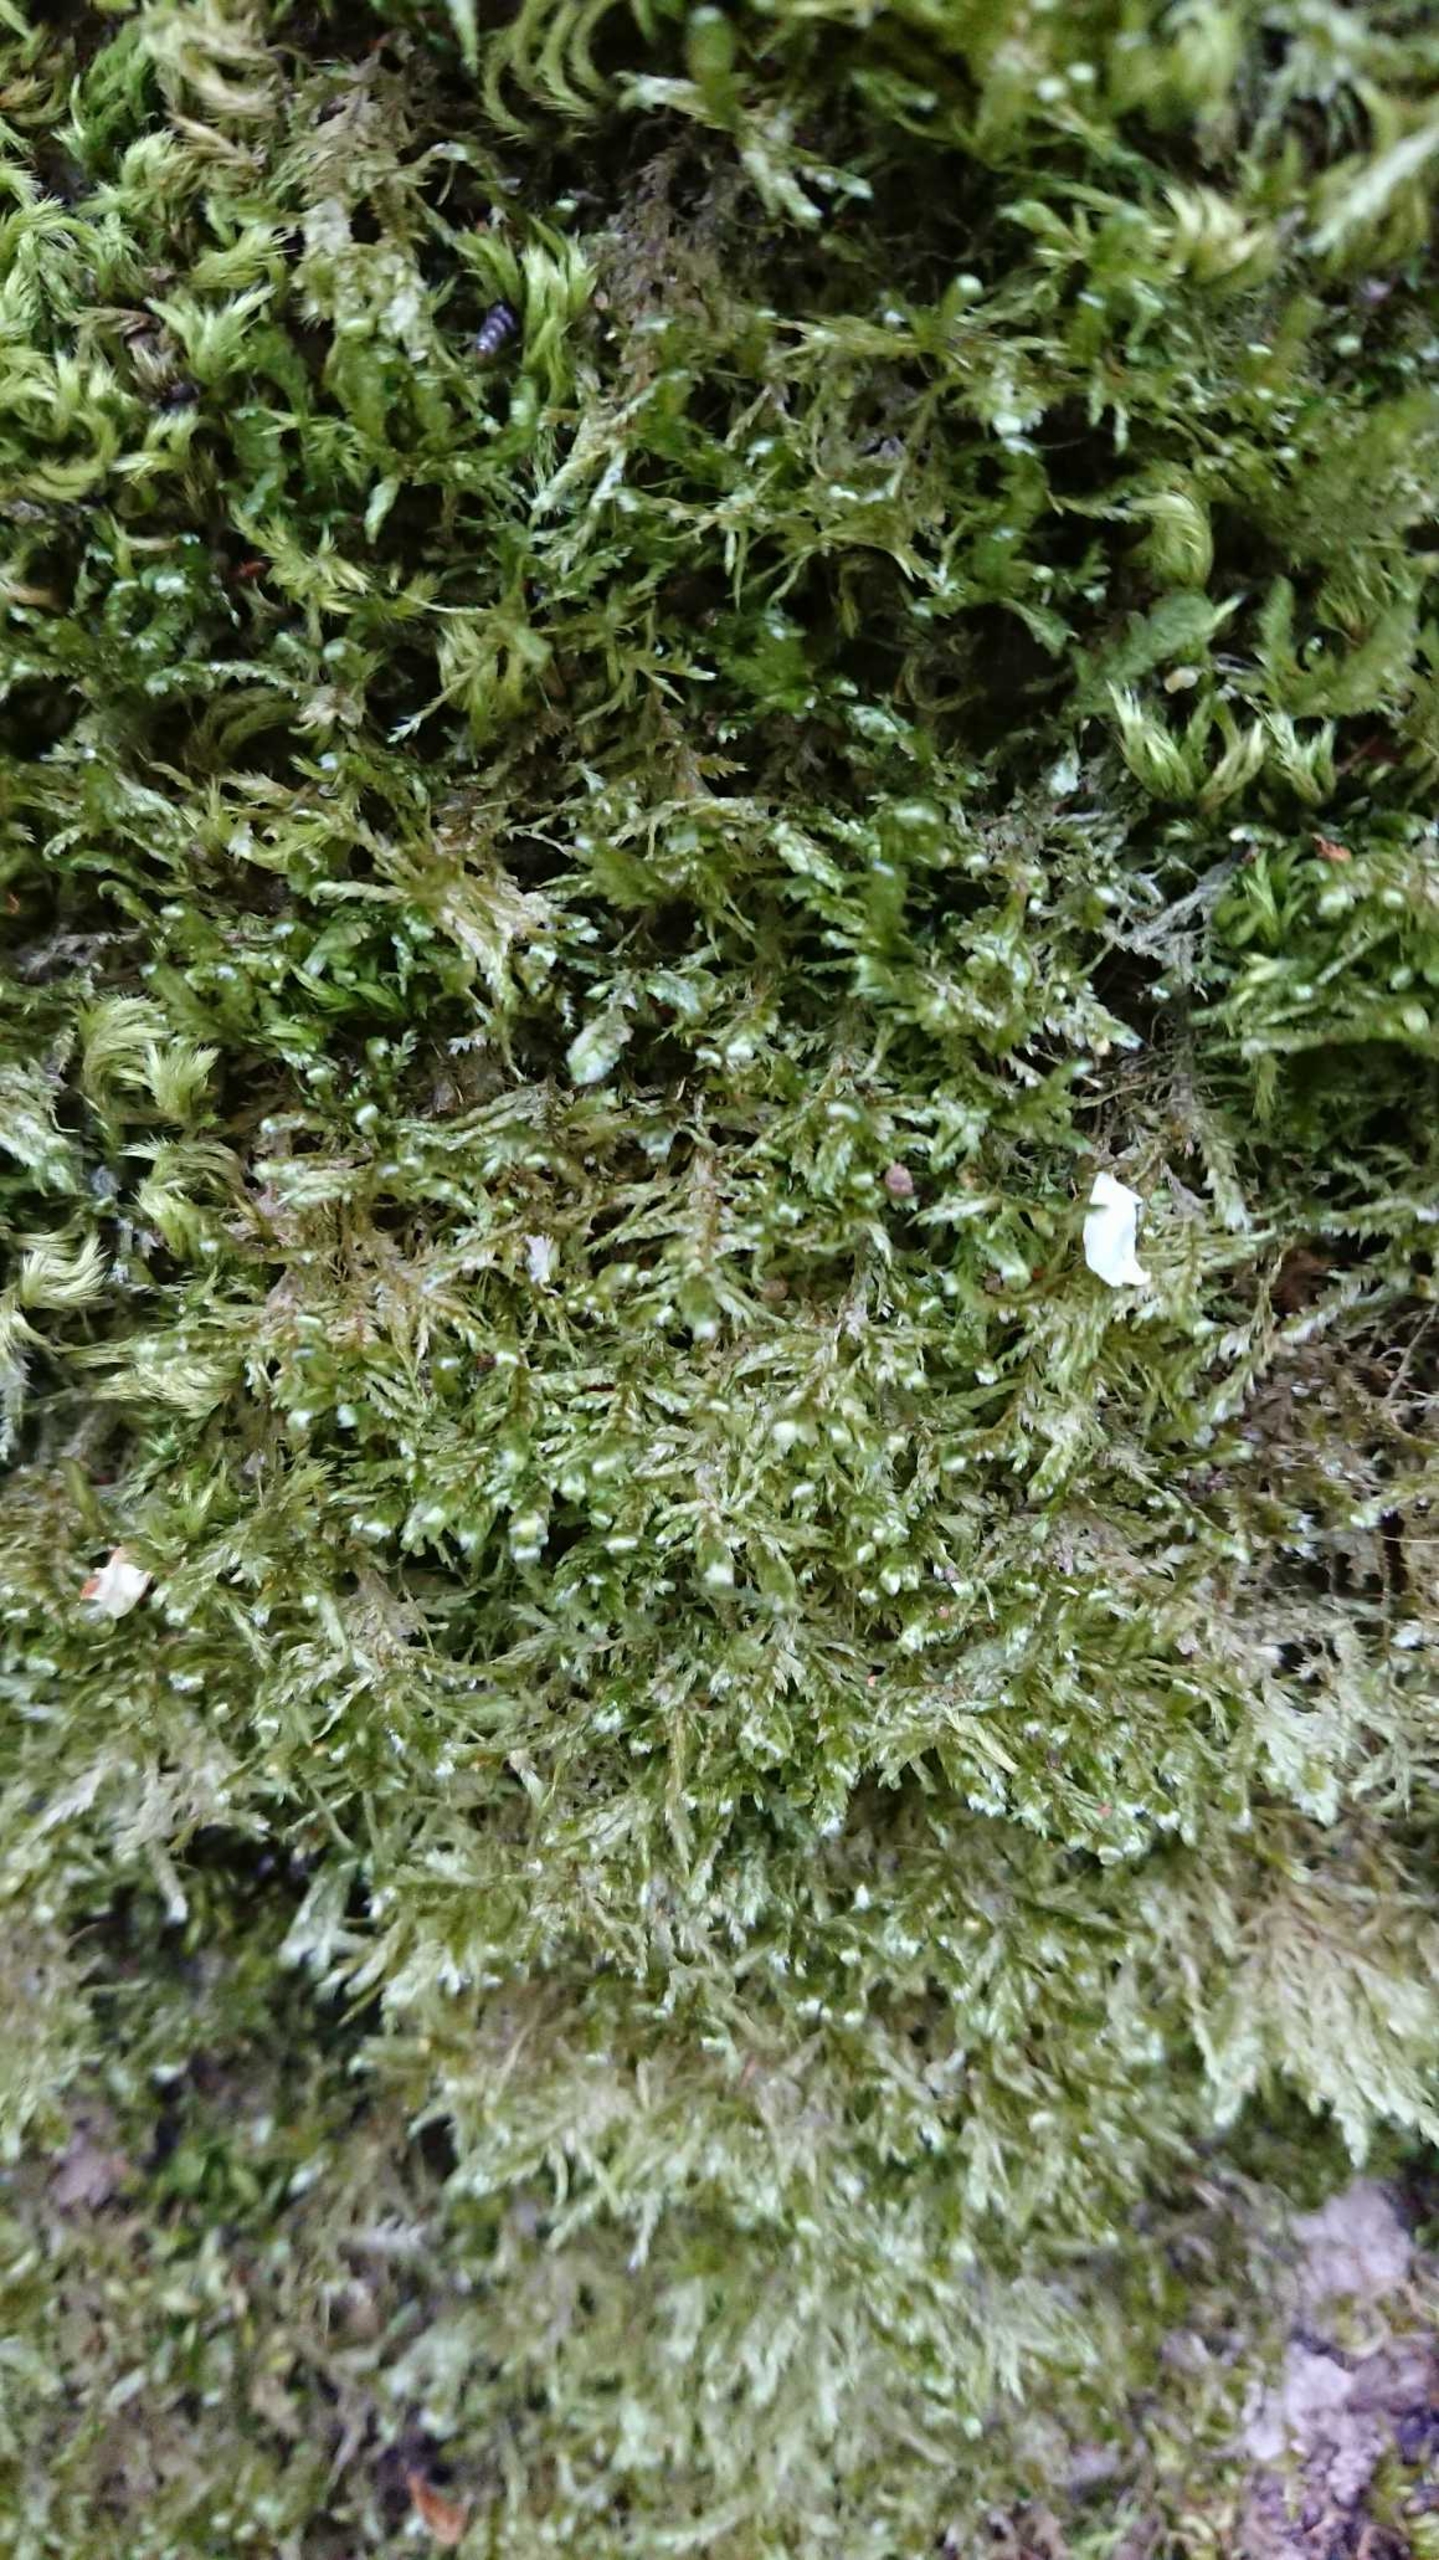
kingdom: Plantae
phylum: Bryophyta
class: Bryopsida
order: Hypnales
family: Neckeraceae
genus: Alleniella
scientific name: Alleniella complanata
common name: Almindelig fladmos
